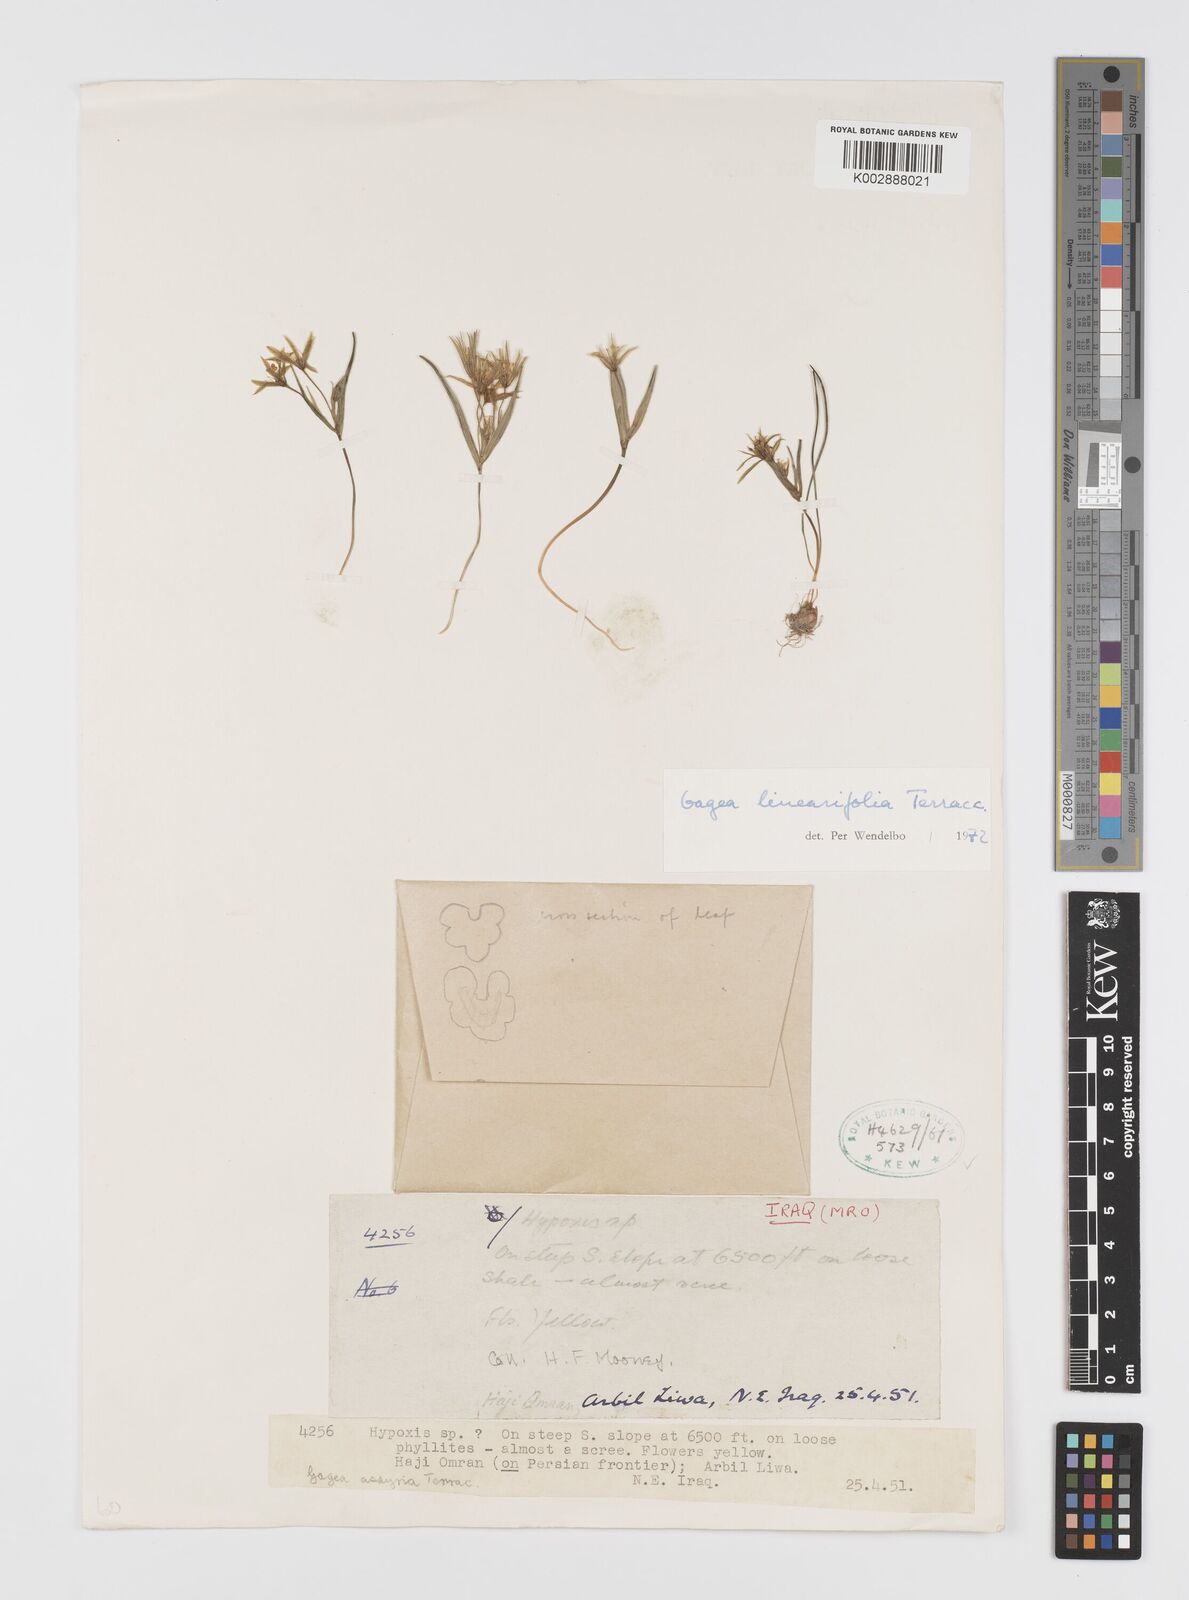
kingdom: Plantae
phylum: Tracheophyta
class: Liliopsida
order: Liliales
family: Liliaceae
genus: Gagea
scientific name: Gagea luteoides
